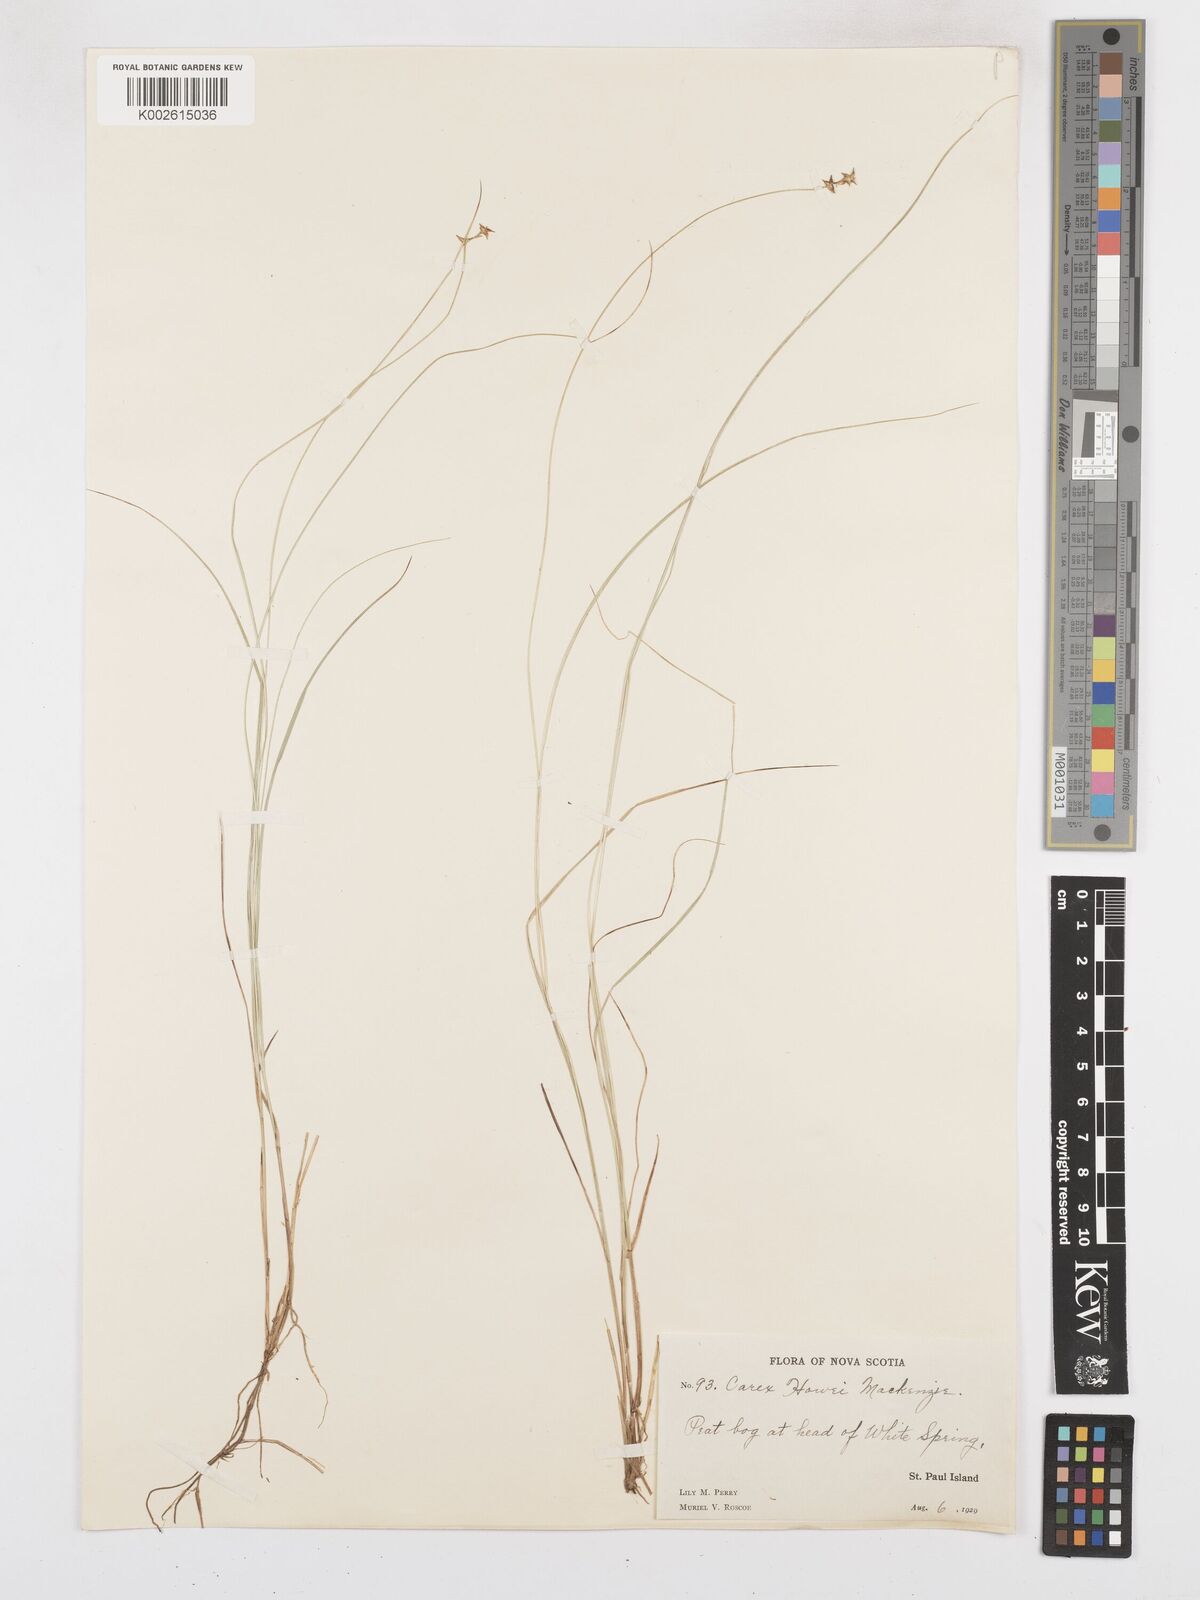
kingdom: Plantae
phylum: Tracheophyta
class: Liliopsida
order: Poales
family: Cyperaceae
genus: Carex
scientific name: Carex atlantica
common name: Atlantic sedge
